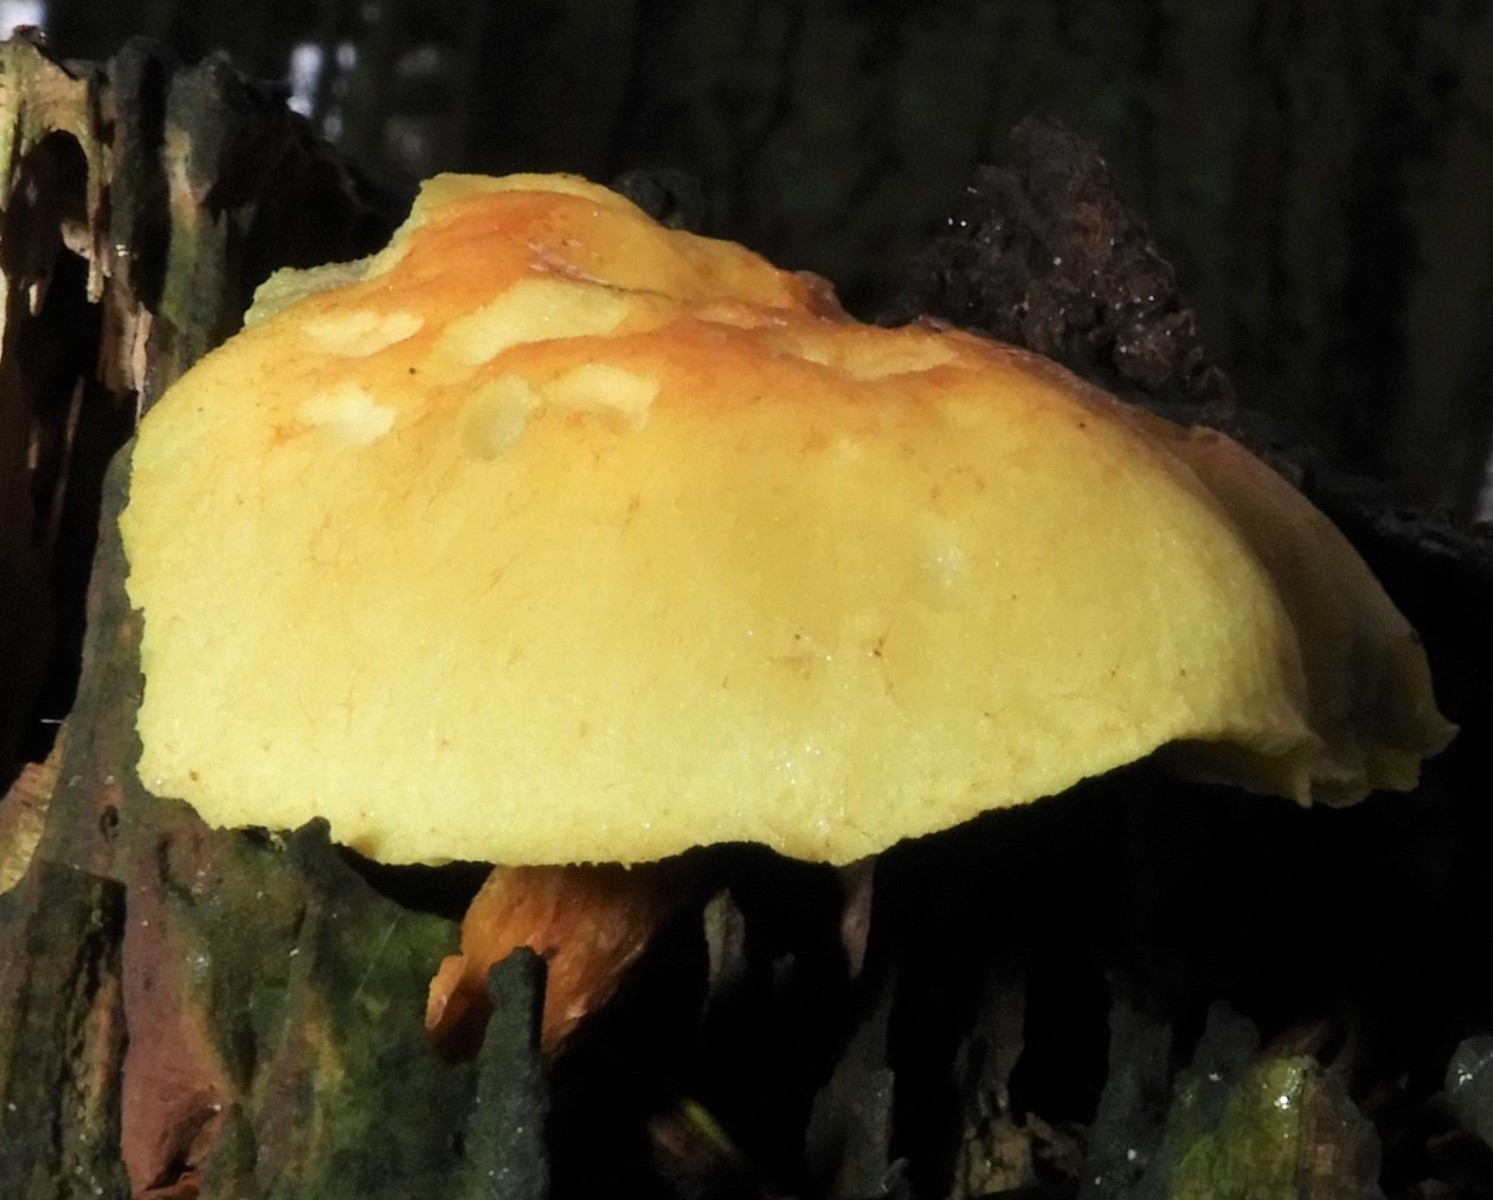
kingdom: Fungi
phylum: Basidiomycota
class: Agaricomycetes
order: Agaricales
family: Strophariaceae
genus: Hypholoma
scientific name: Hypholoma fasciculare
